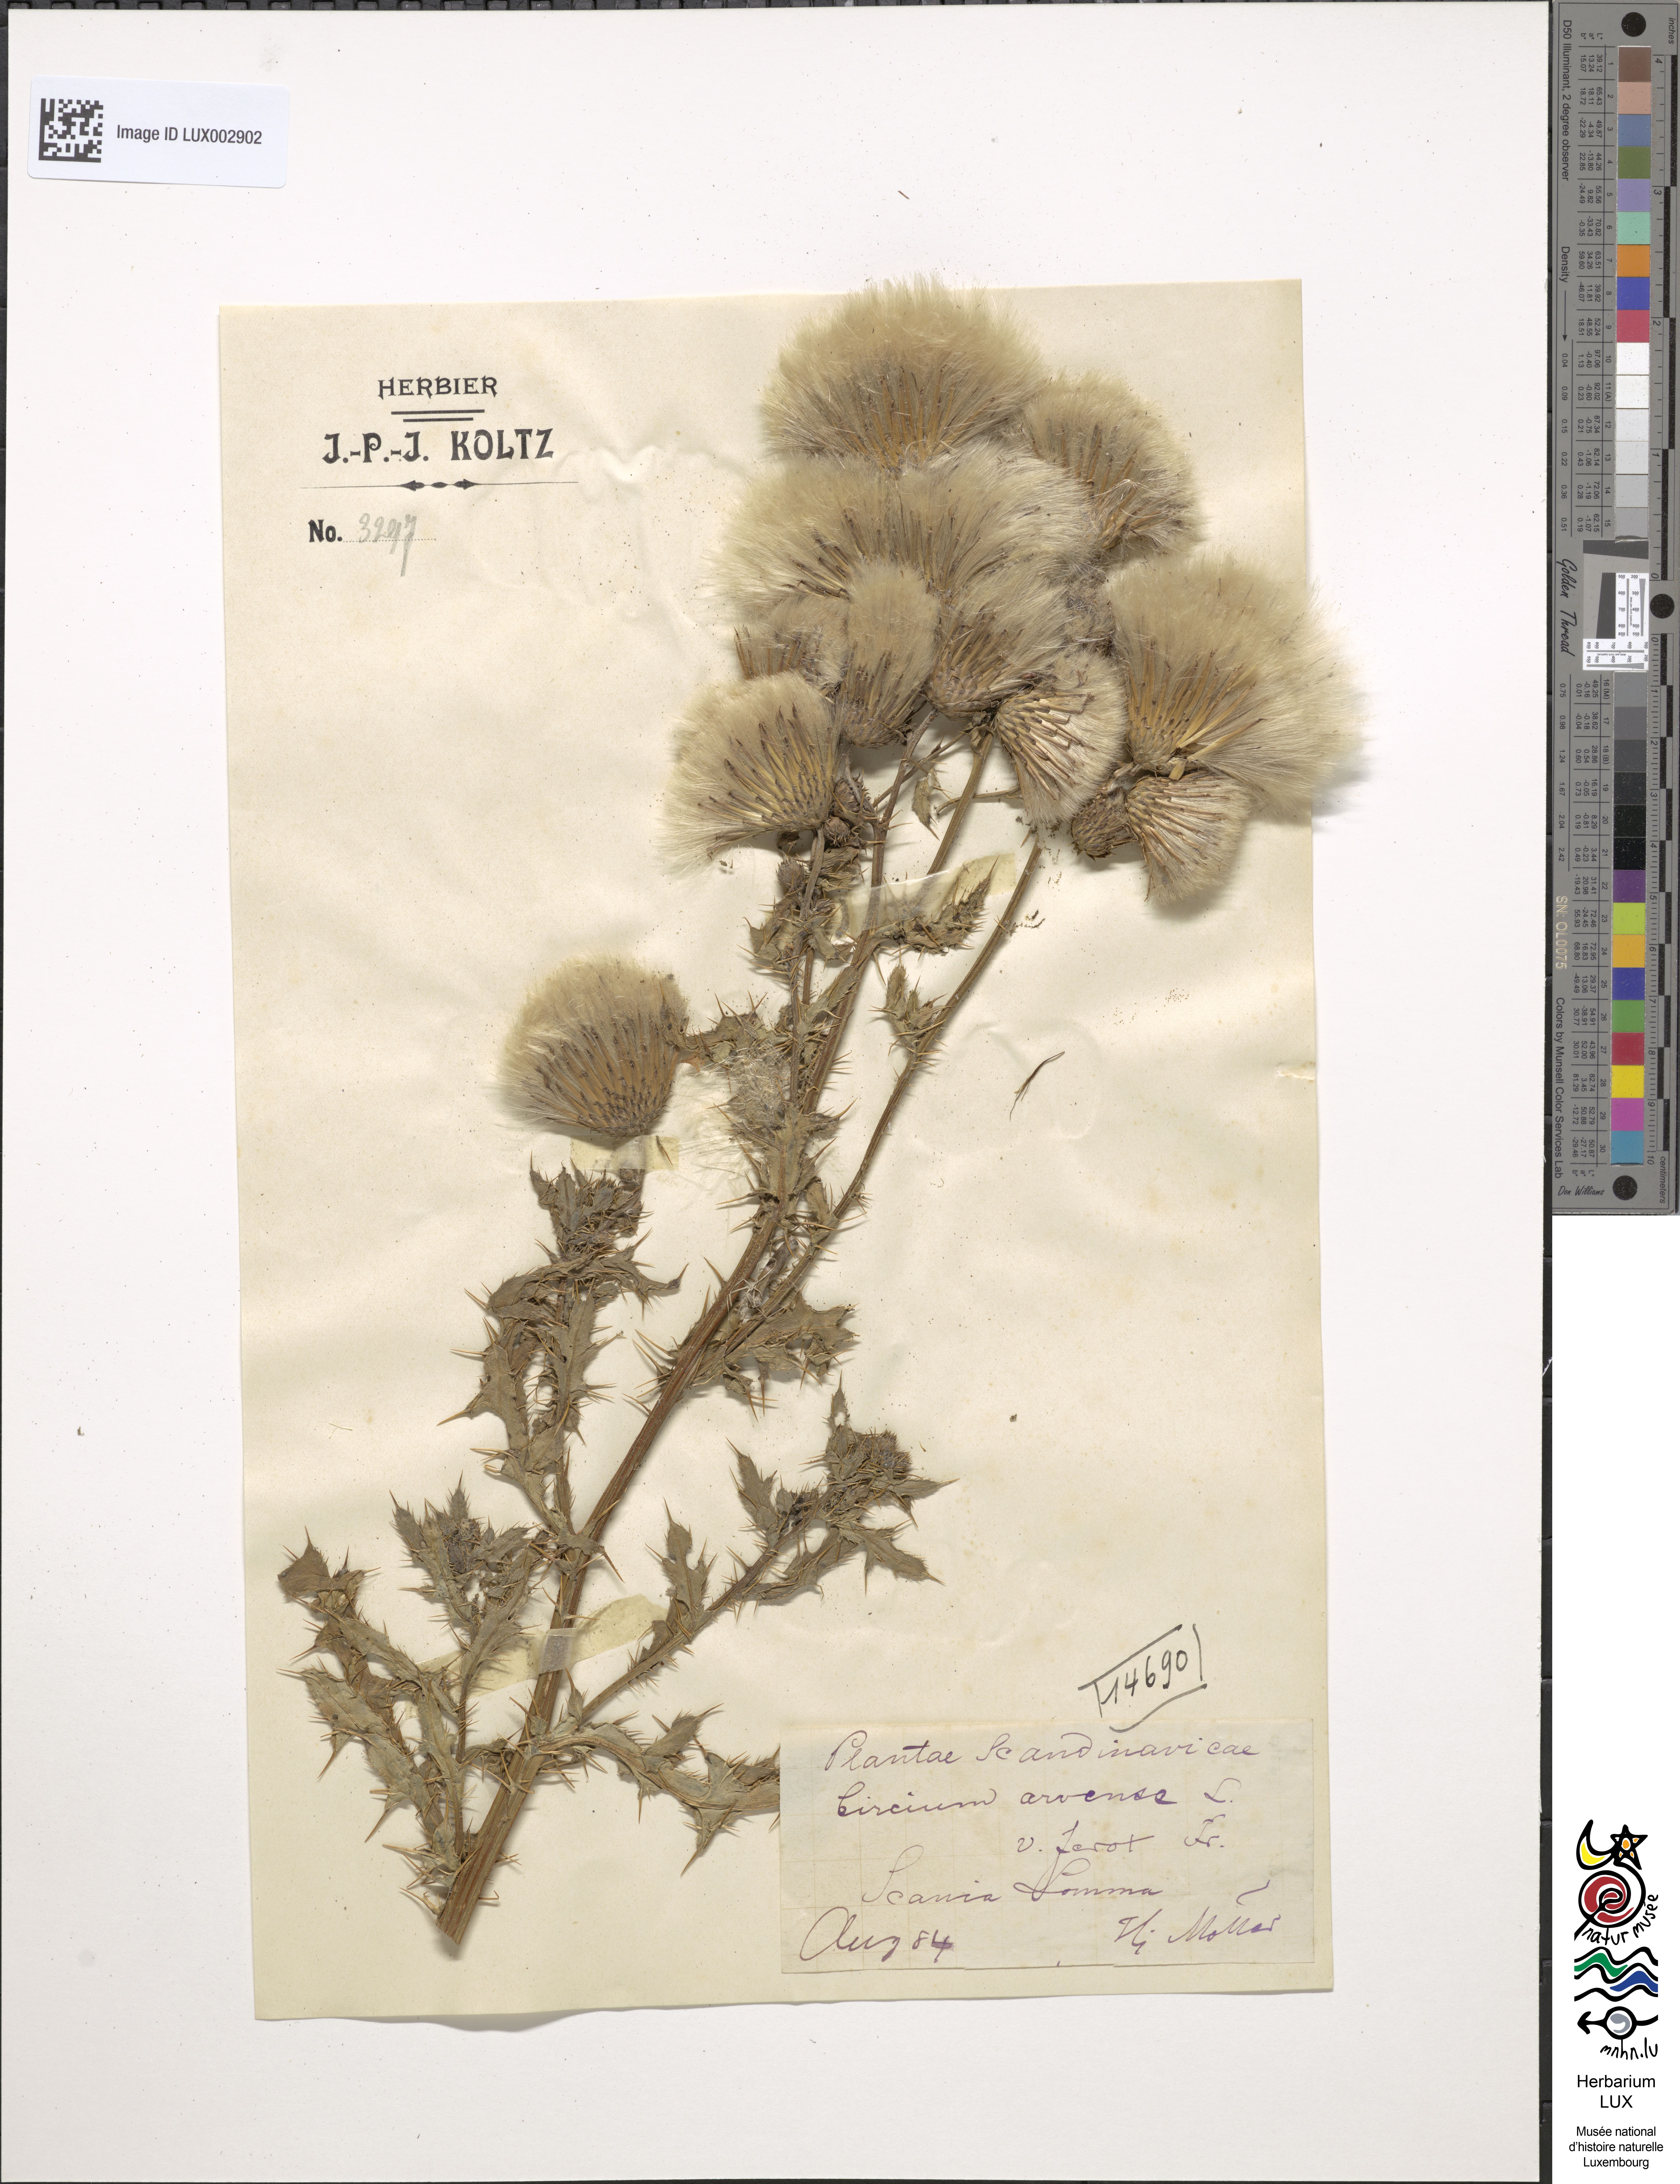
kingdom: Plantae
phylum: Tracheophyta
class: Magnoliopsida
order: Asterales
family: Asteraceae
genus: Cirsium
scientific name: Cirsium arvense
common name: Creeping thistle
